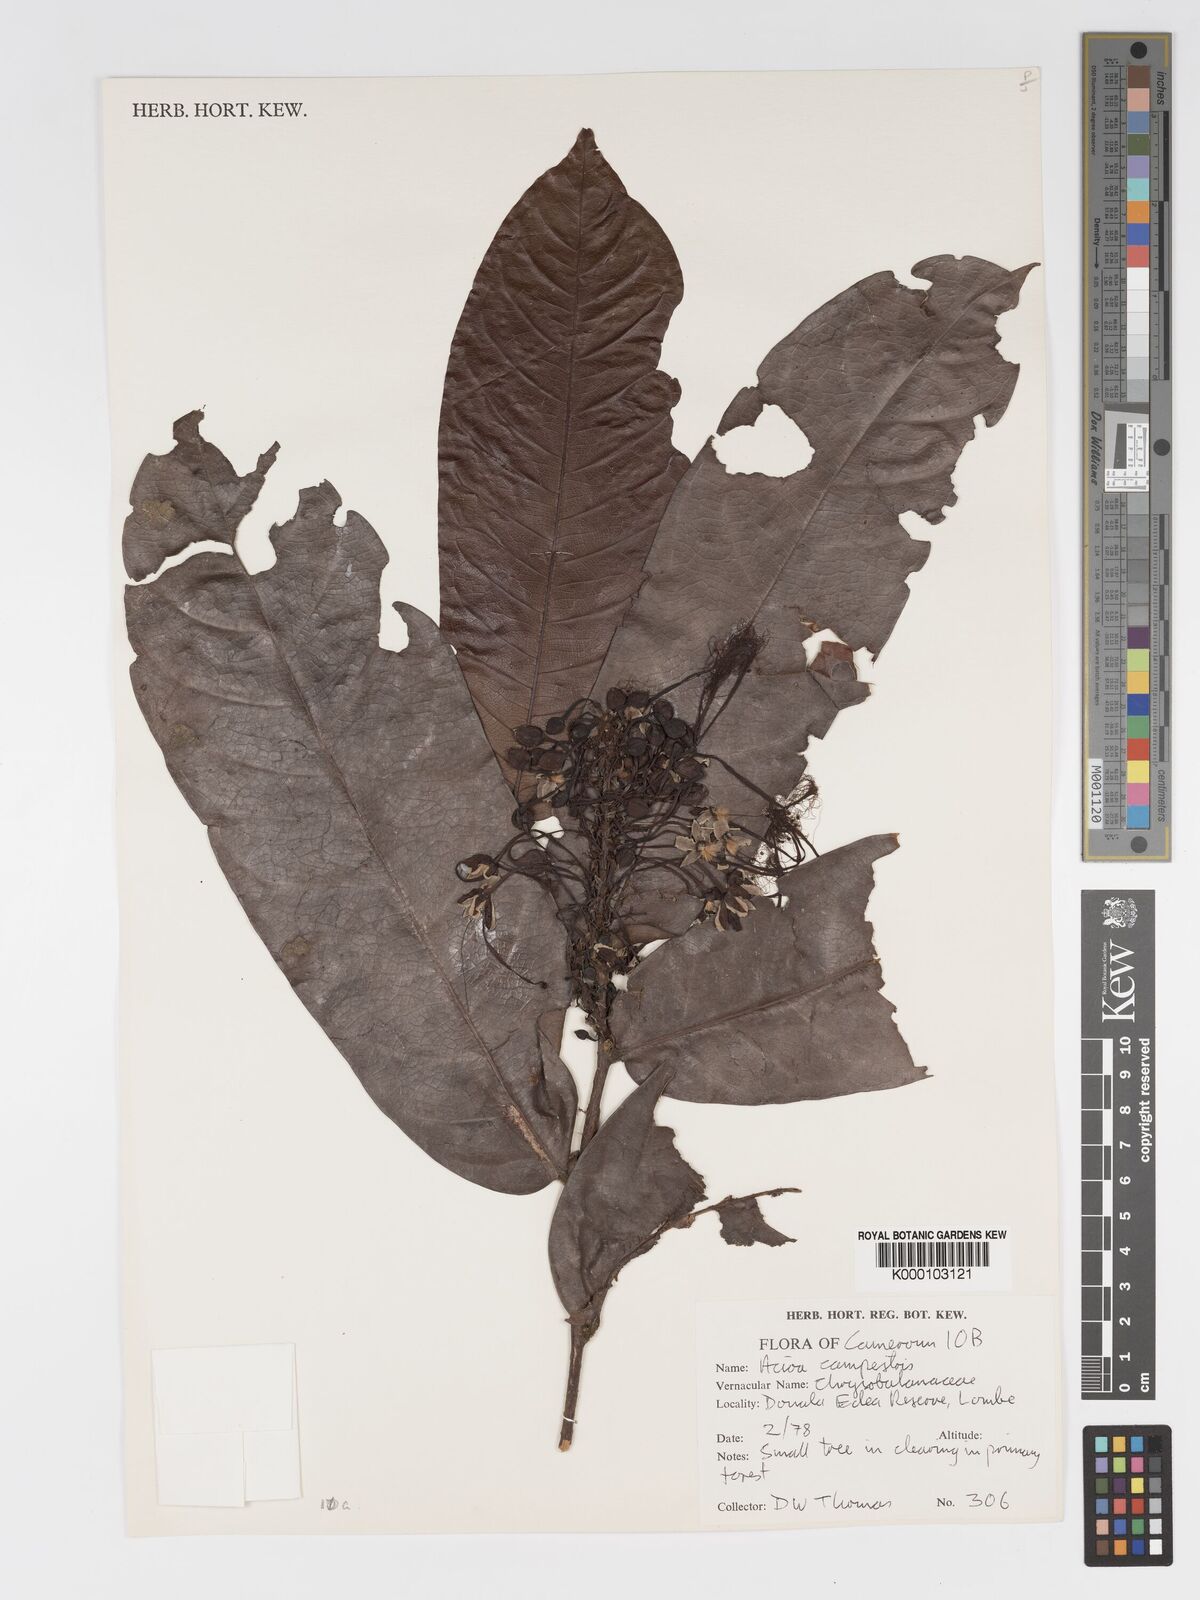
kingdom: Plantae
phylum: Tracheophyta
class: Magnoliopsida
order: Malpighiales
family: Chrysobalanaceae
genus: Dactyladenia
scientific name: Dactyladenia campestris
